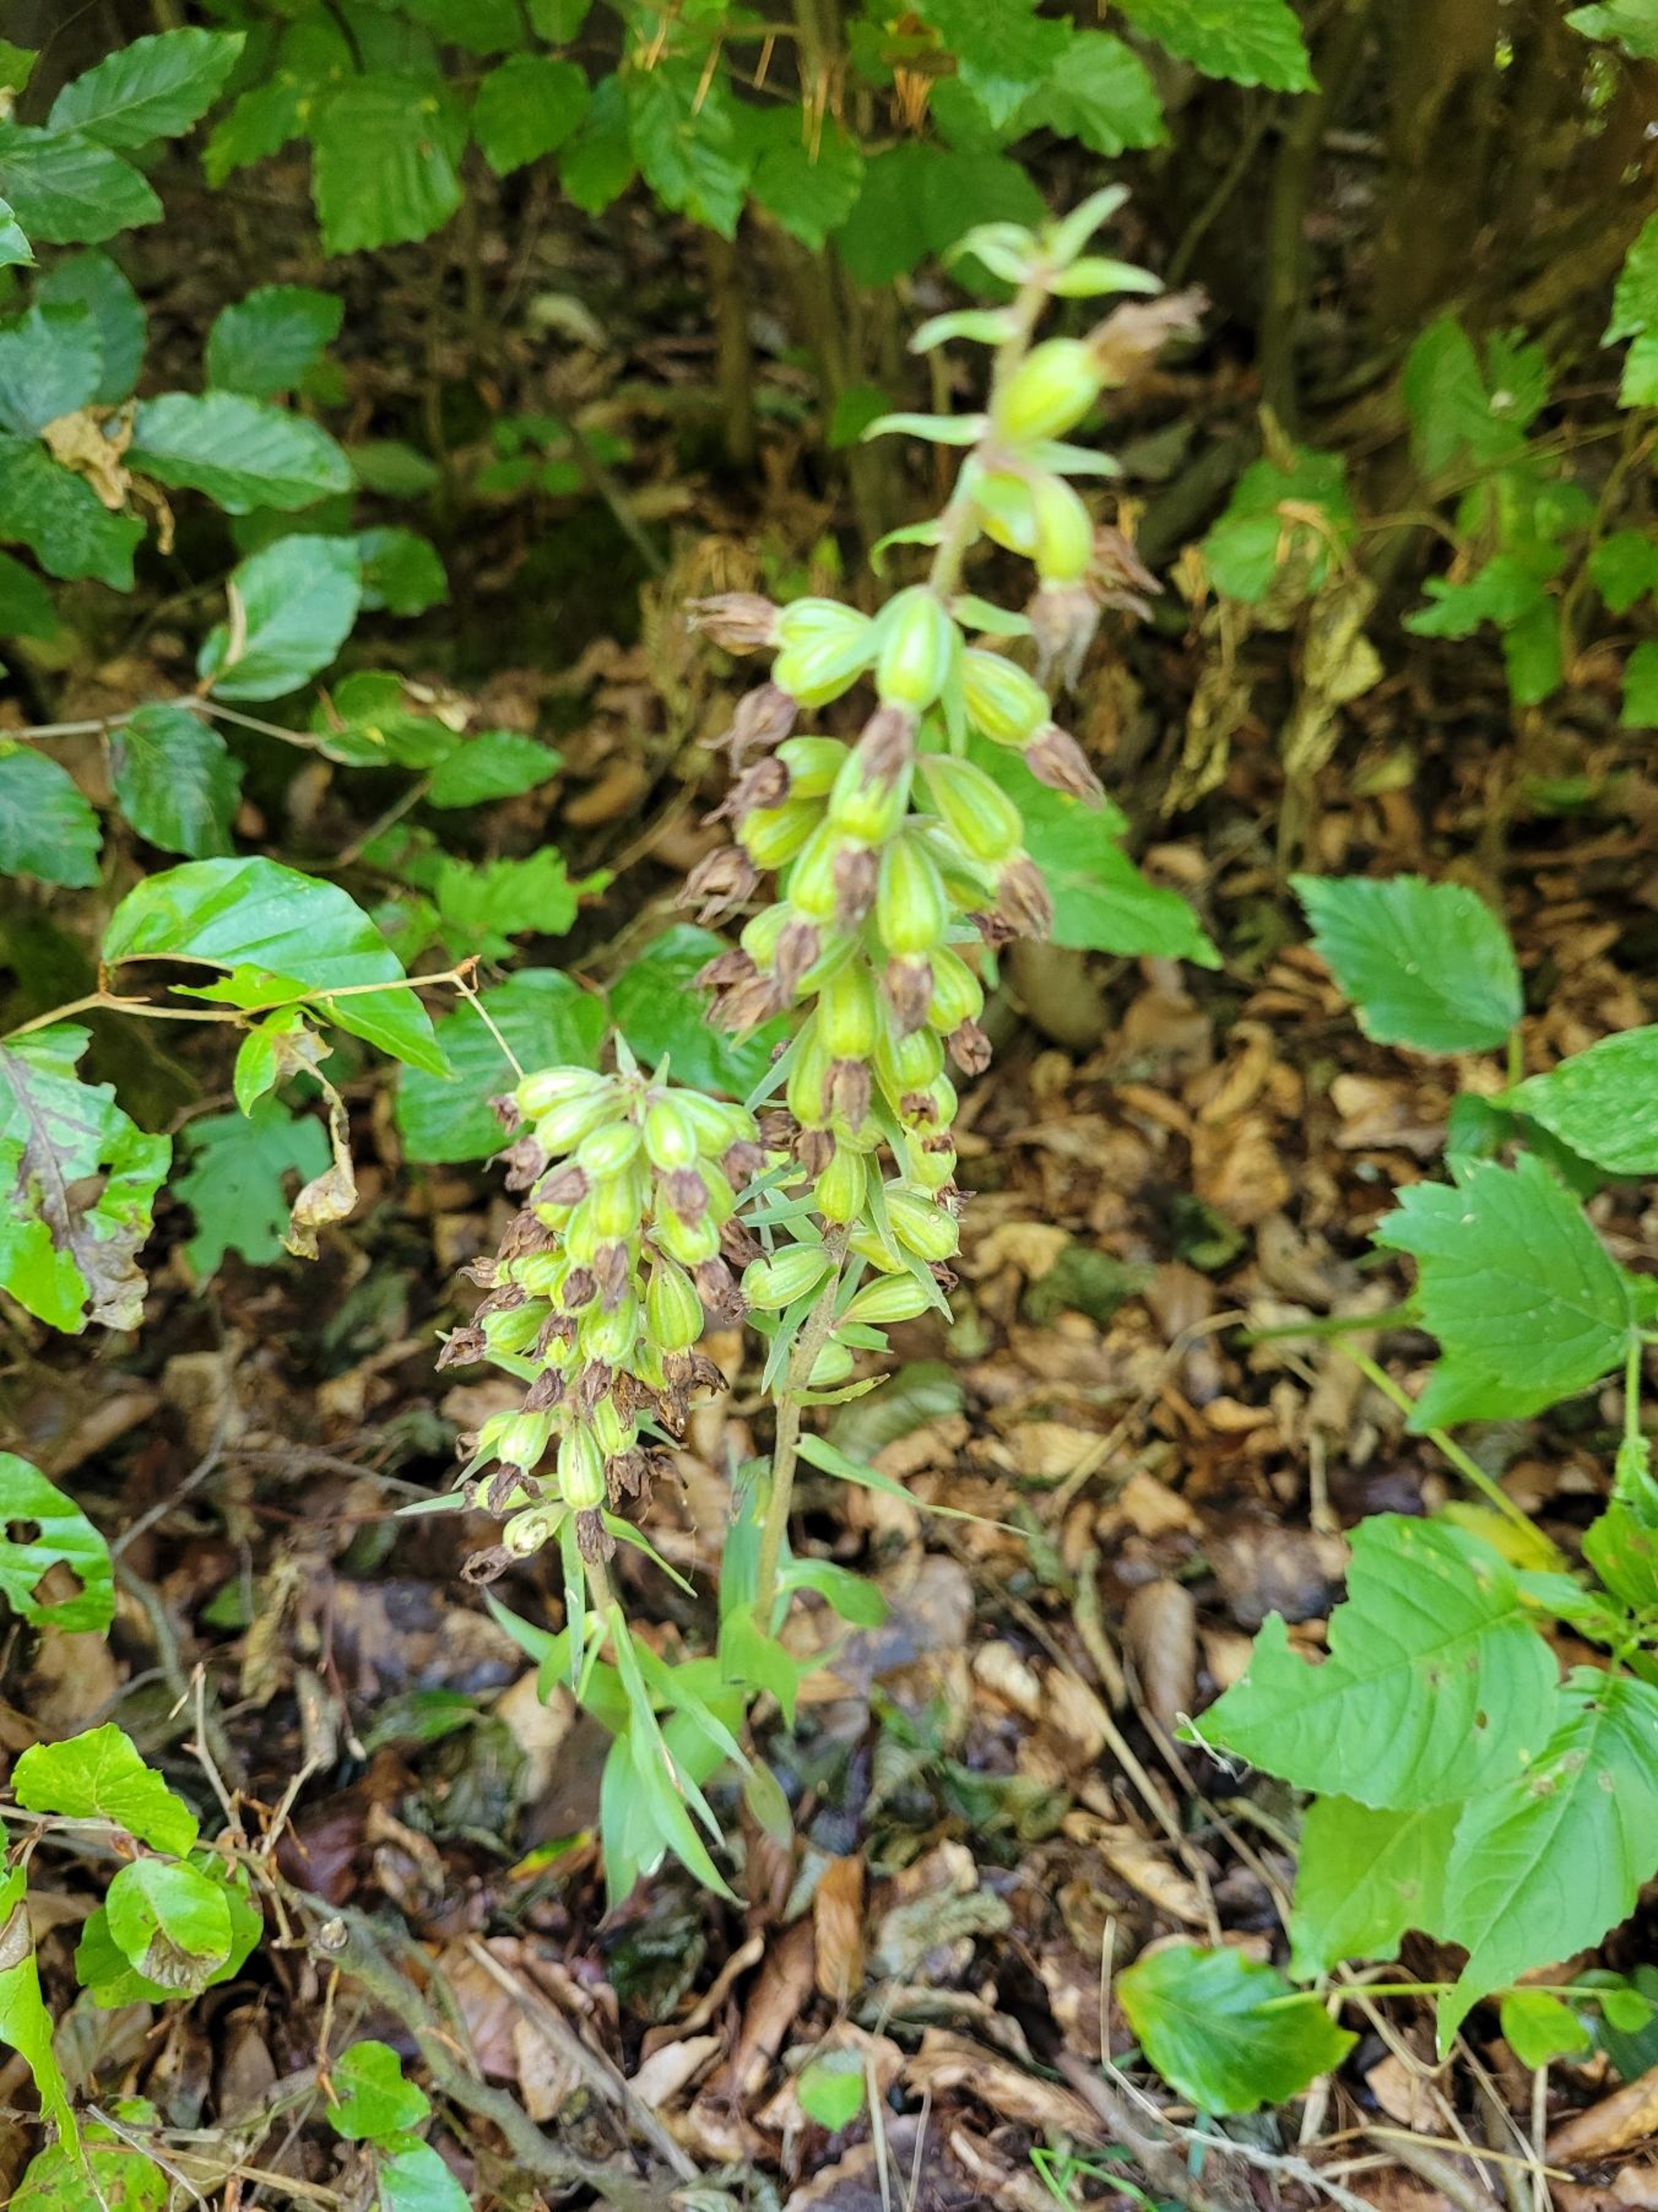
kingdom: Plantae
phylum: Tracheophyta
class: Liliopsida
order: Asparagales
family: Orchidaceae
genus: Epipactis
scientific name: Epipactis purpurata
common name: Tætblomstret hullæbe
